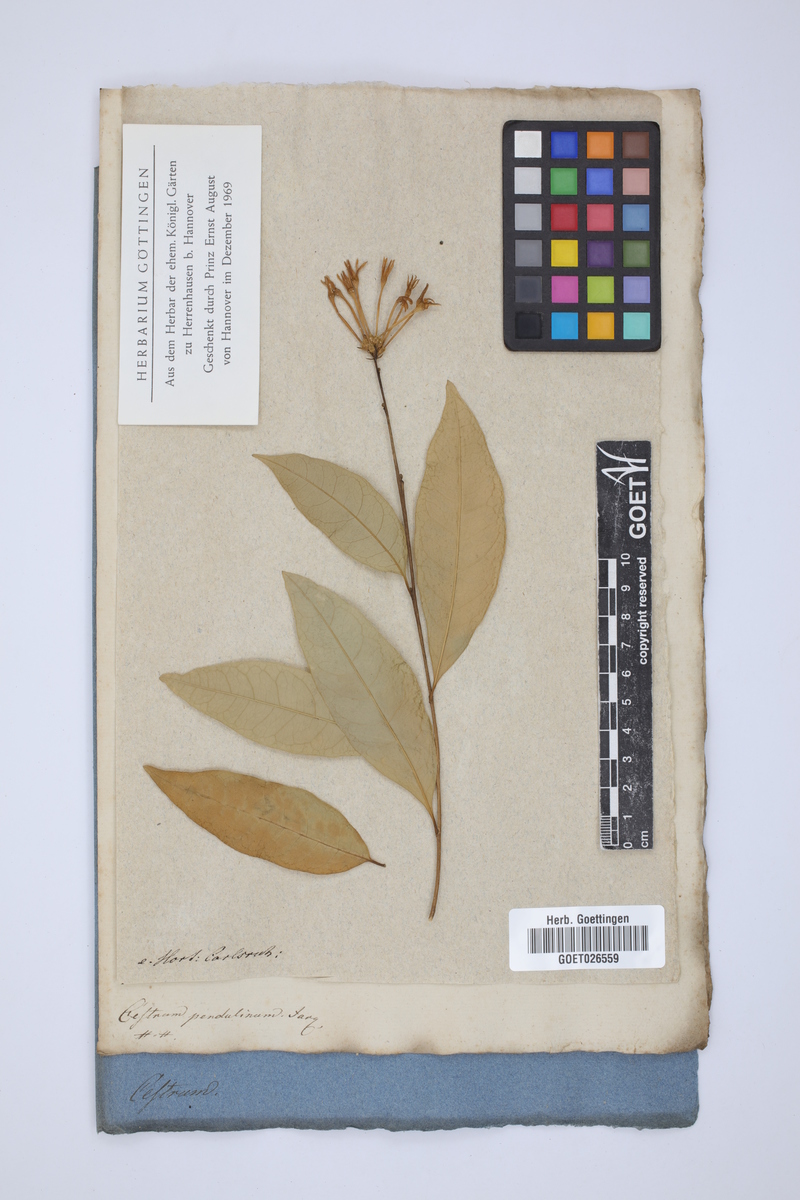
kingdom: Plantae
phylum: Tracheophyta
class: Magnoliopsida
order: Solanales
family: Solanaceae
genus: Cestrum
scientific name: Cestrum alternifolium
